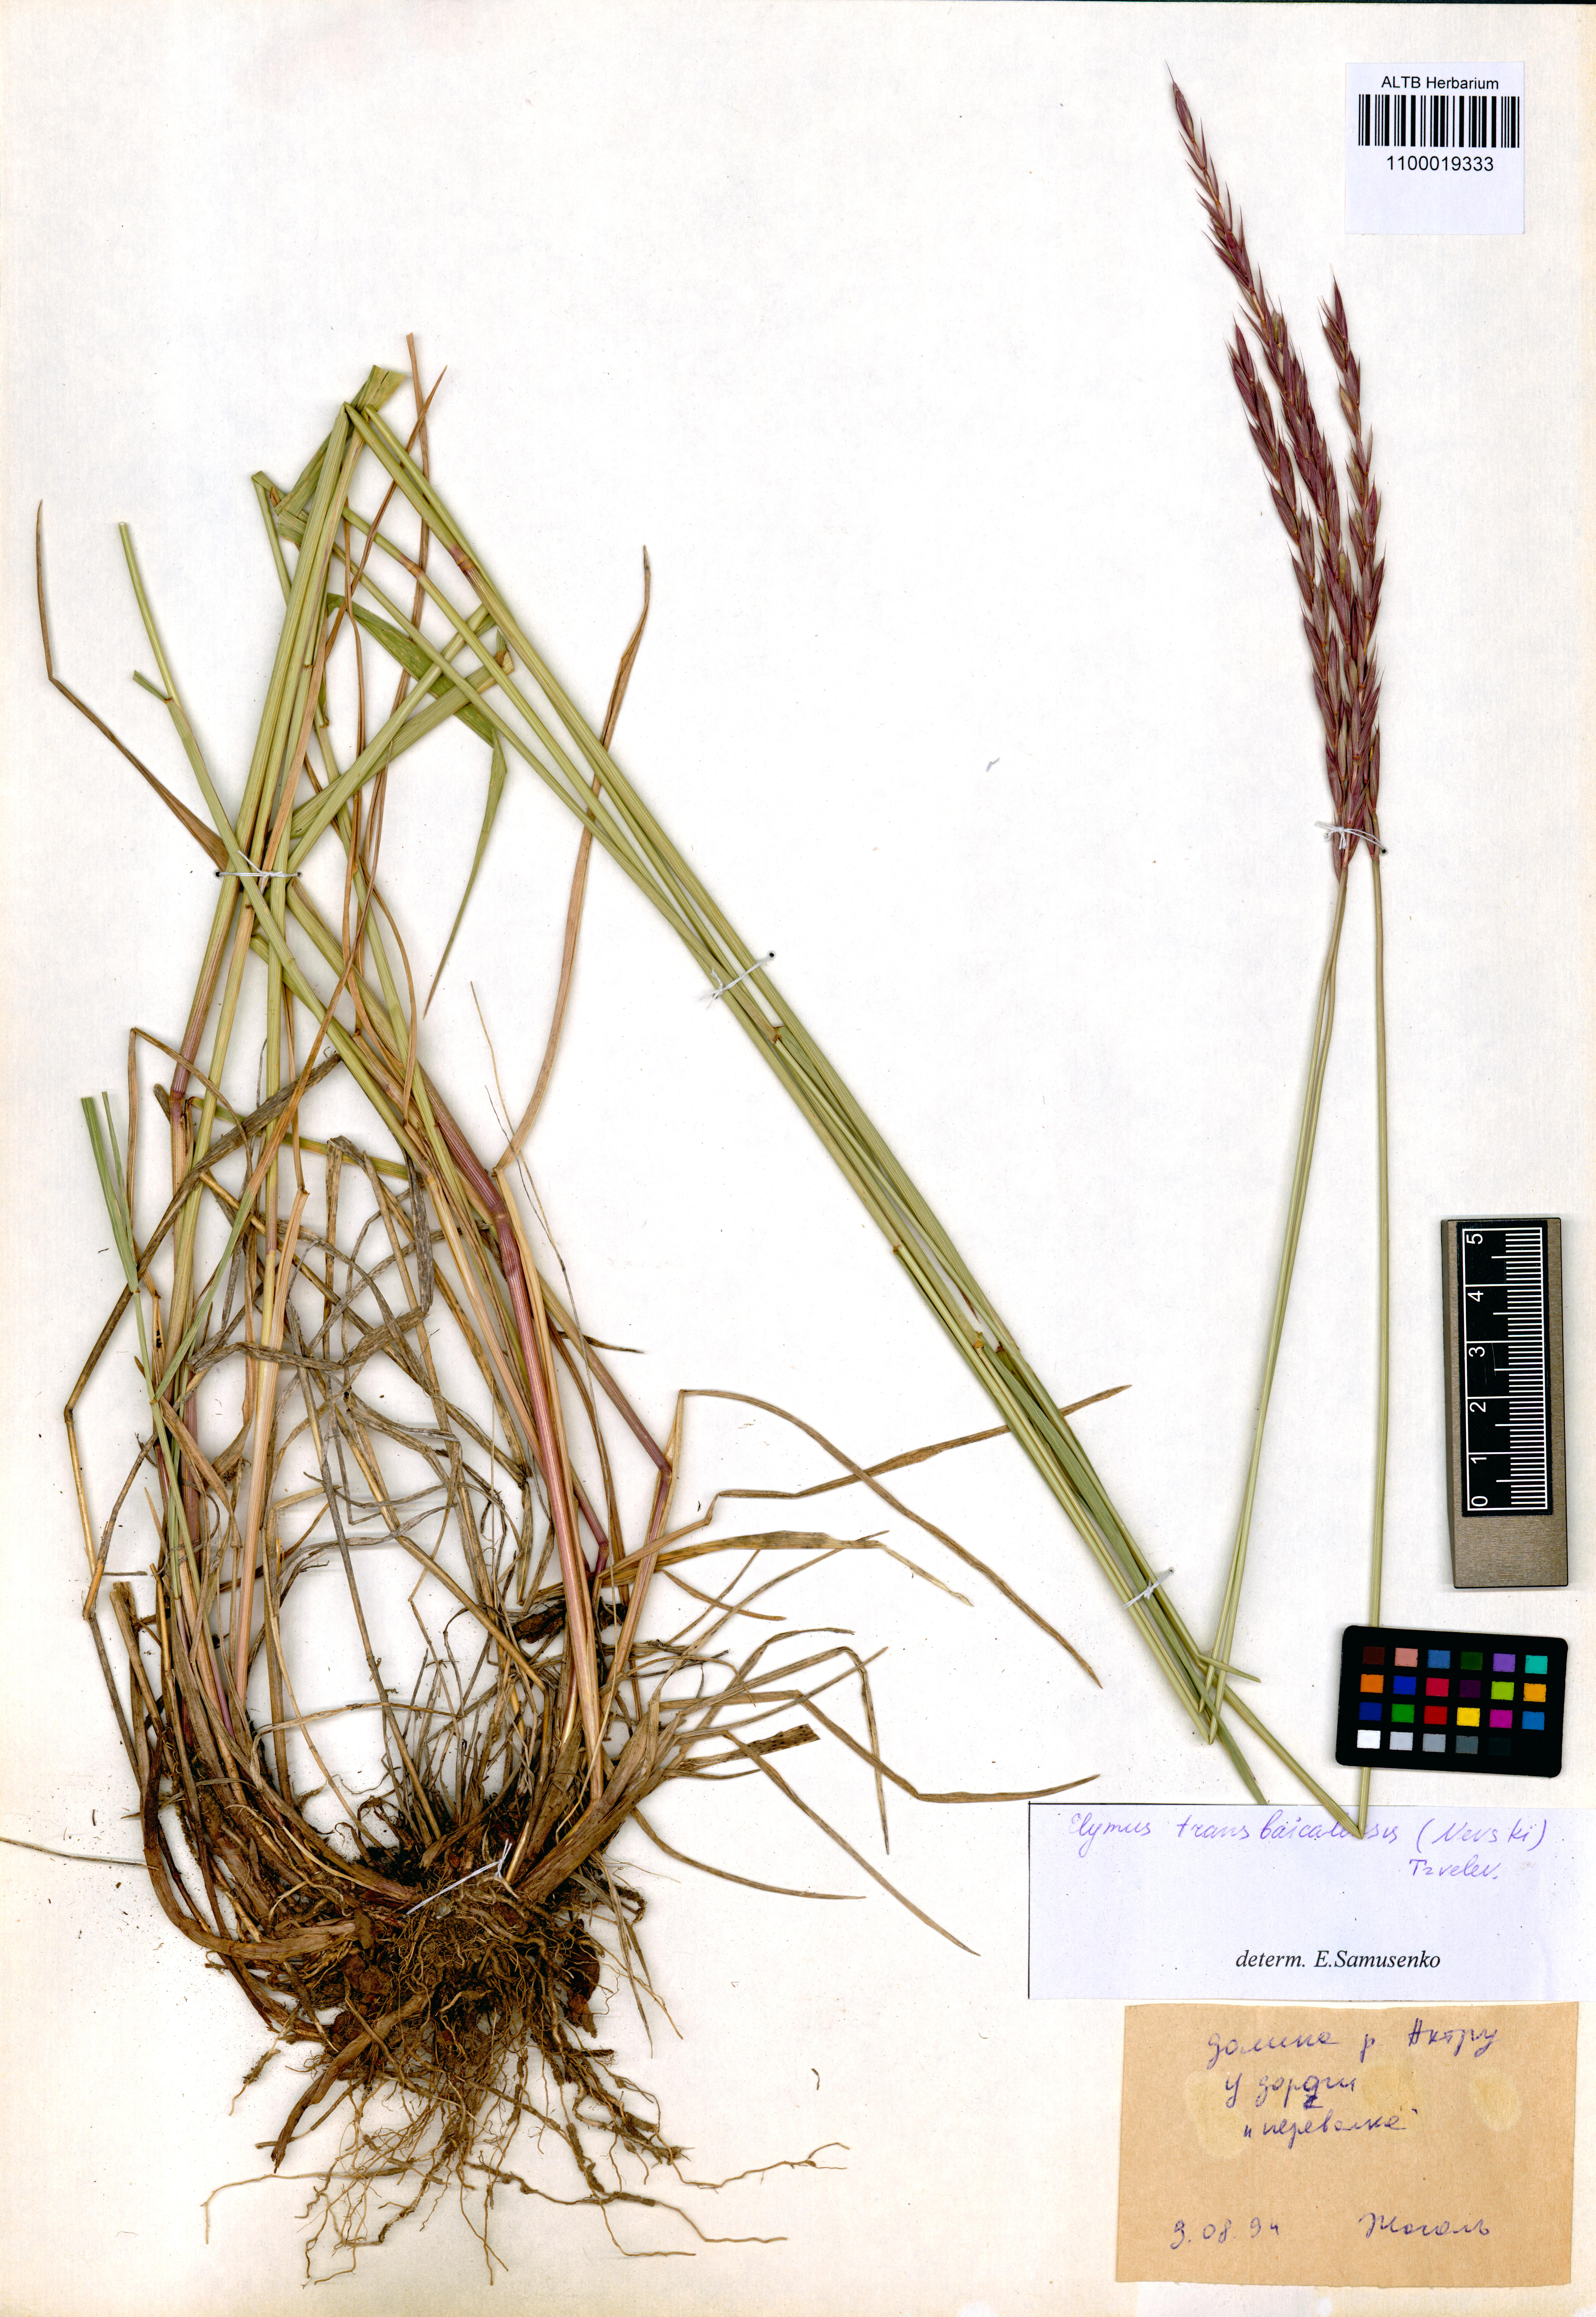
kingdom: Plantae
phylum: Tracheophyta
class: Liliopsida
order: Poales
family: Poaceae
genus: Elymus
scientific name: Elymus mutabilis
